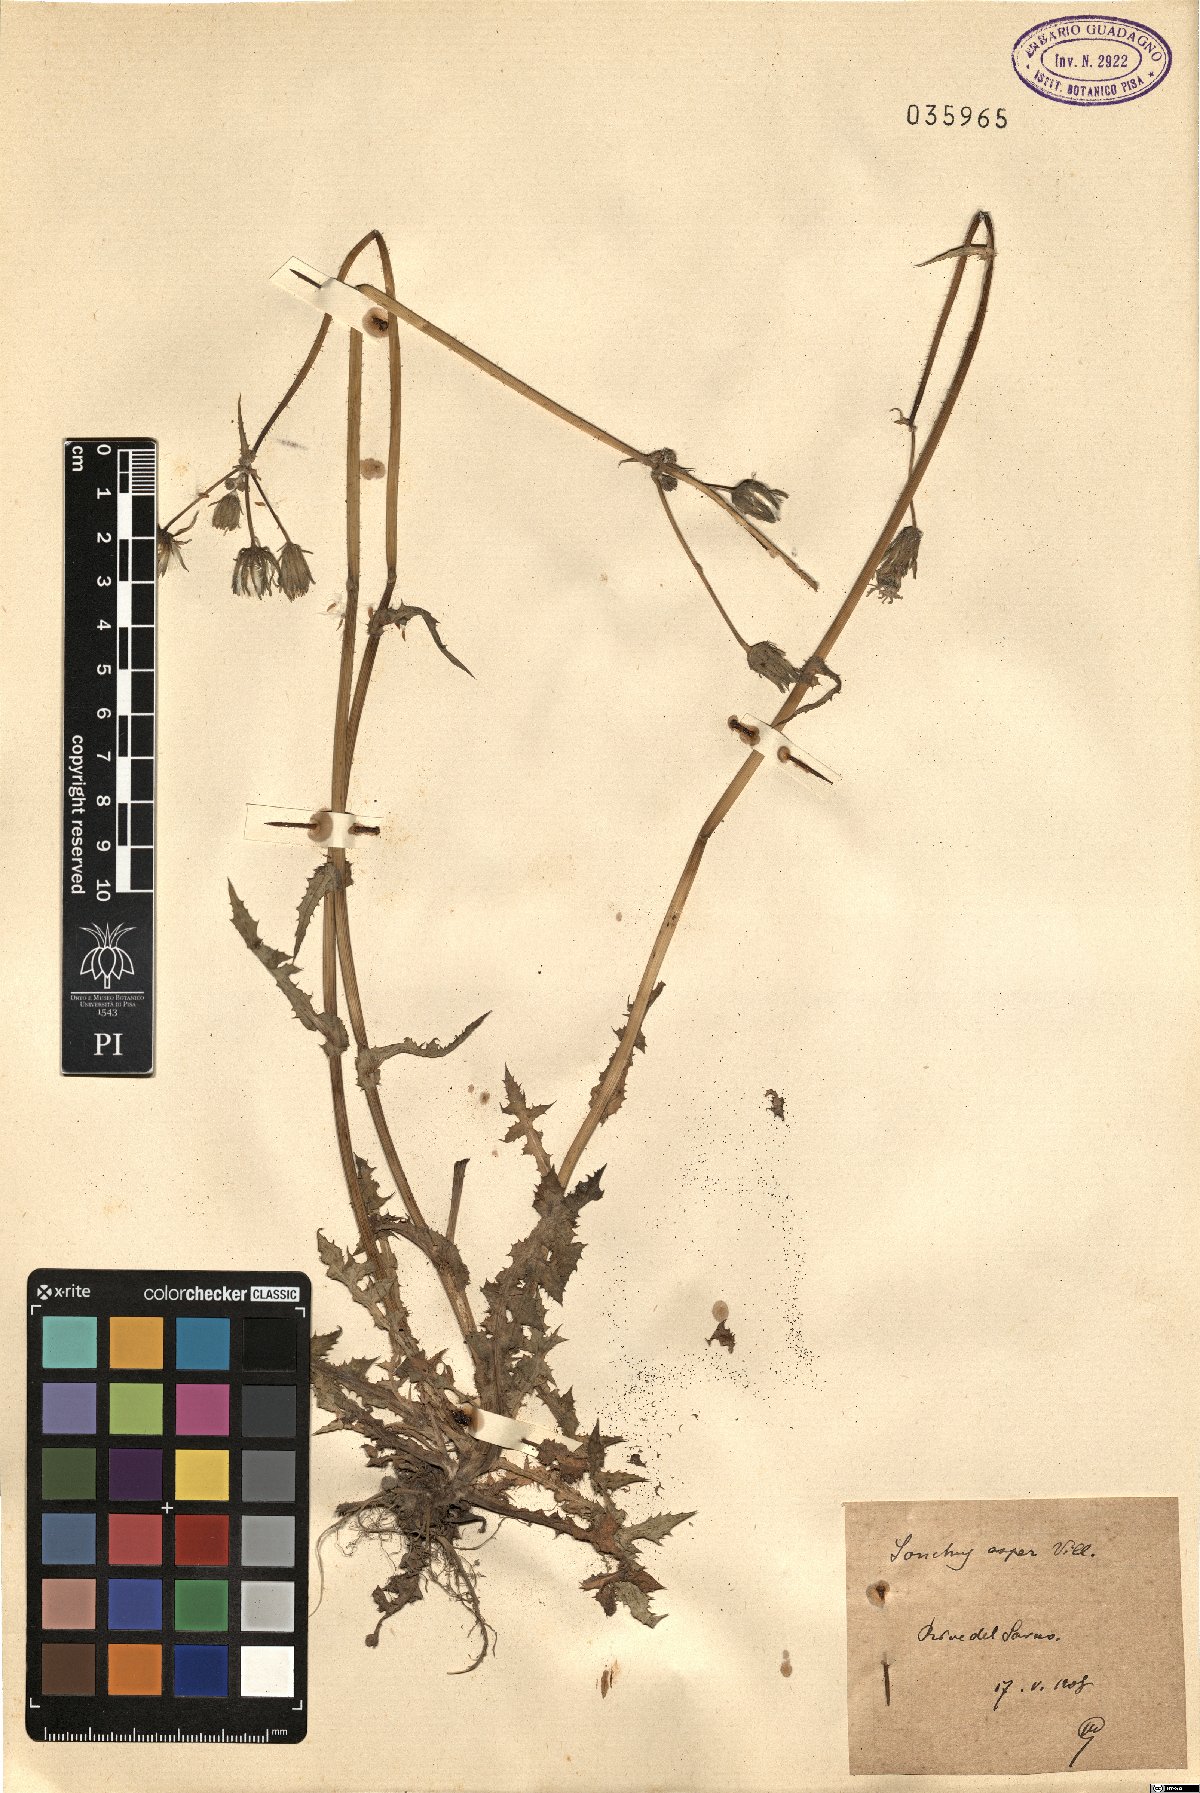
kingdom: Plantae
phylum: Tracheophyta
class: Magnoliopsida
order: Asterales
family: Asteraceae
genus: Sonchus
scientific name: Sonchus asper
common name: Prickly sow-thistle
